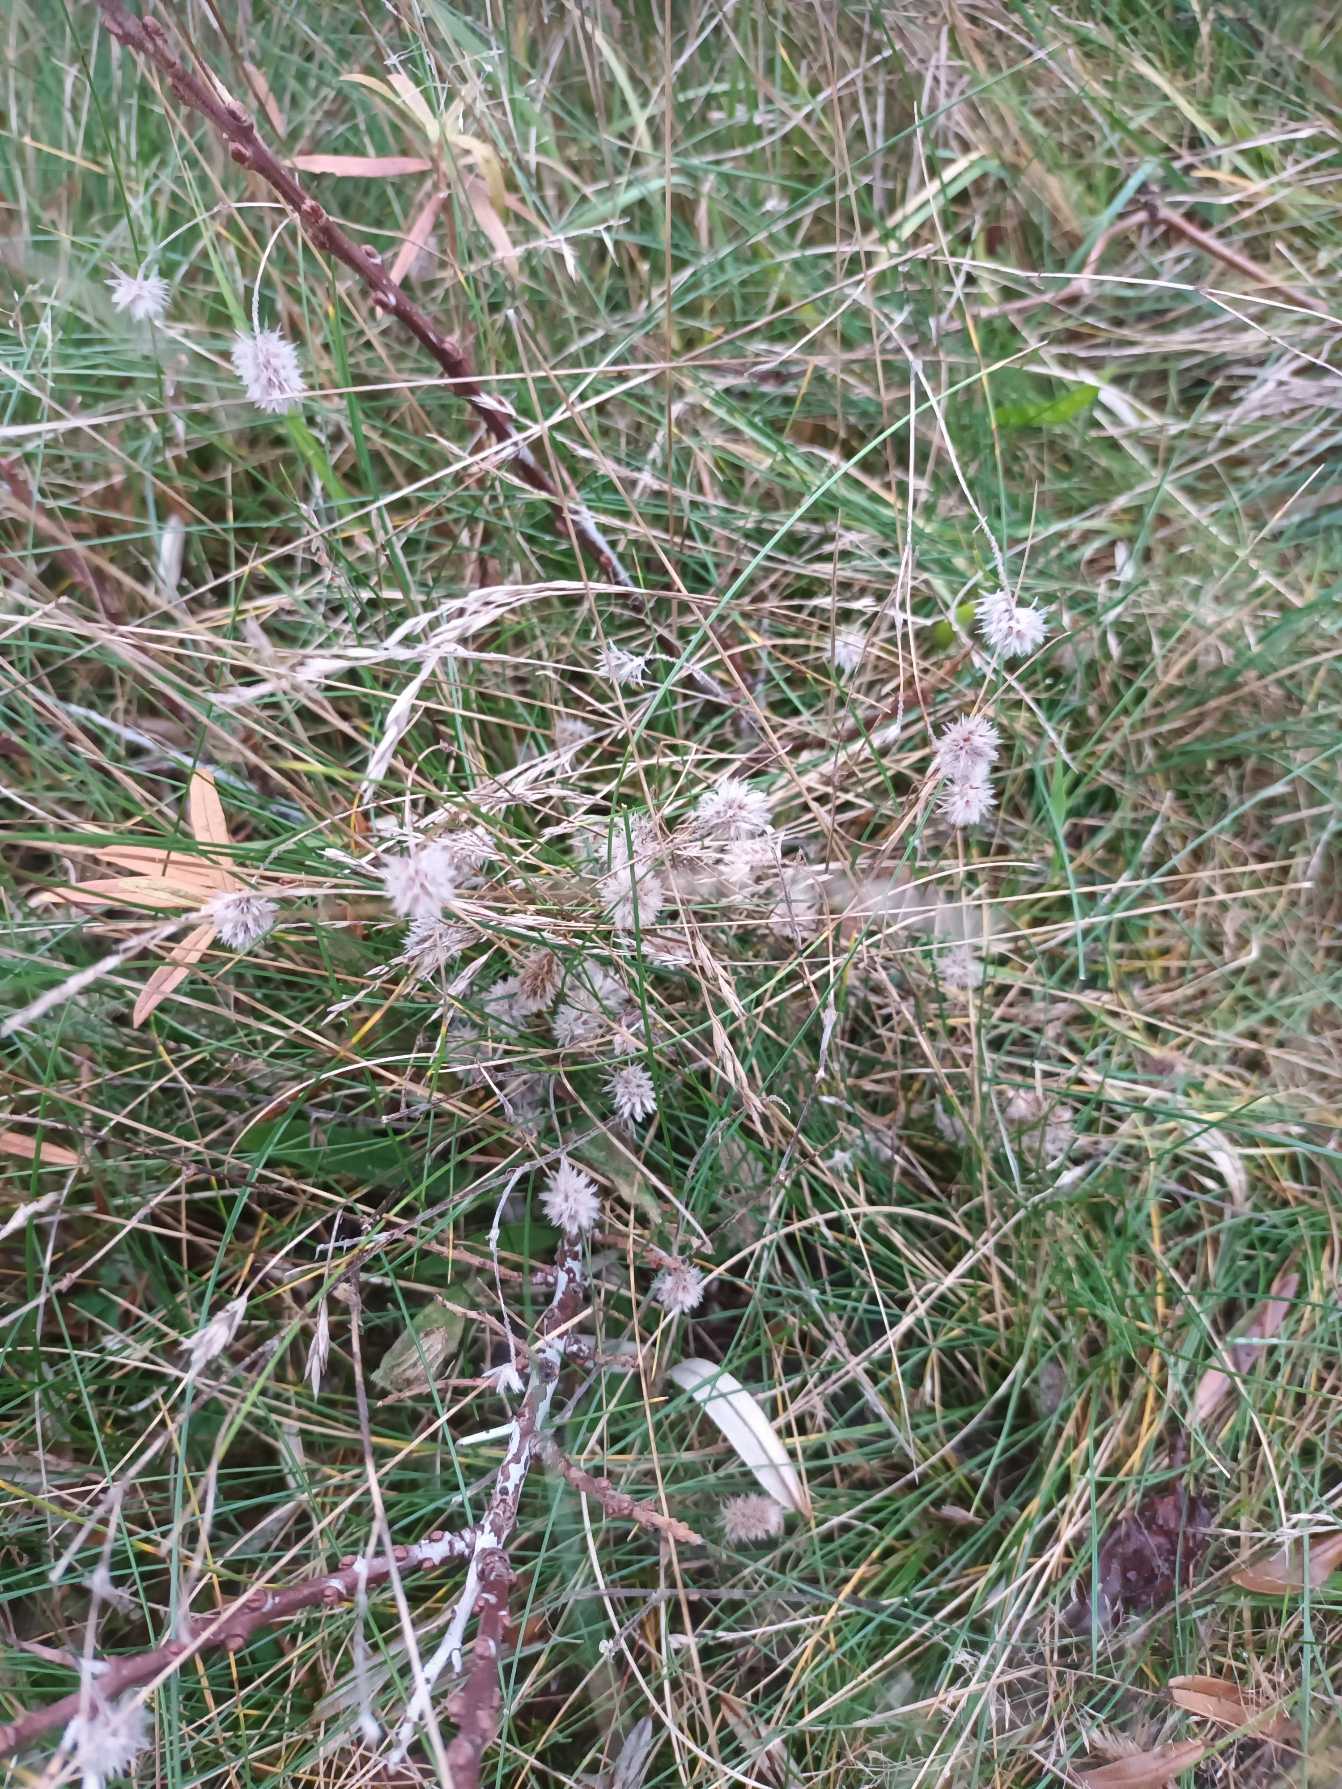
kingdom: Plantae
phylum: Tracheophyta
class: Magnoliopsida
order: Fabales
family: Fabaceae
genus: Trifolium
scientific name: Trifolium arvense
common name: Hare-kløver
